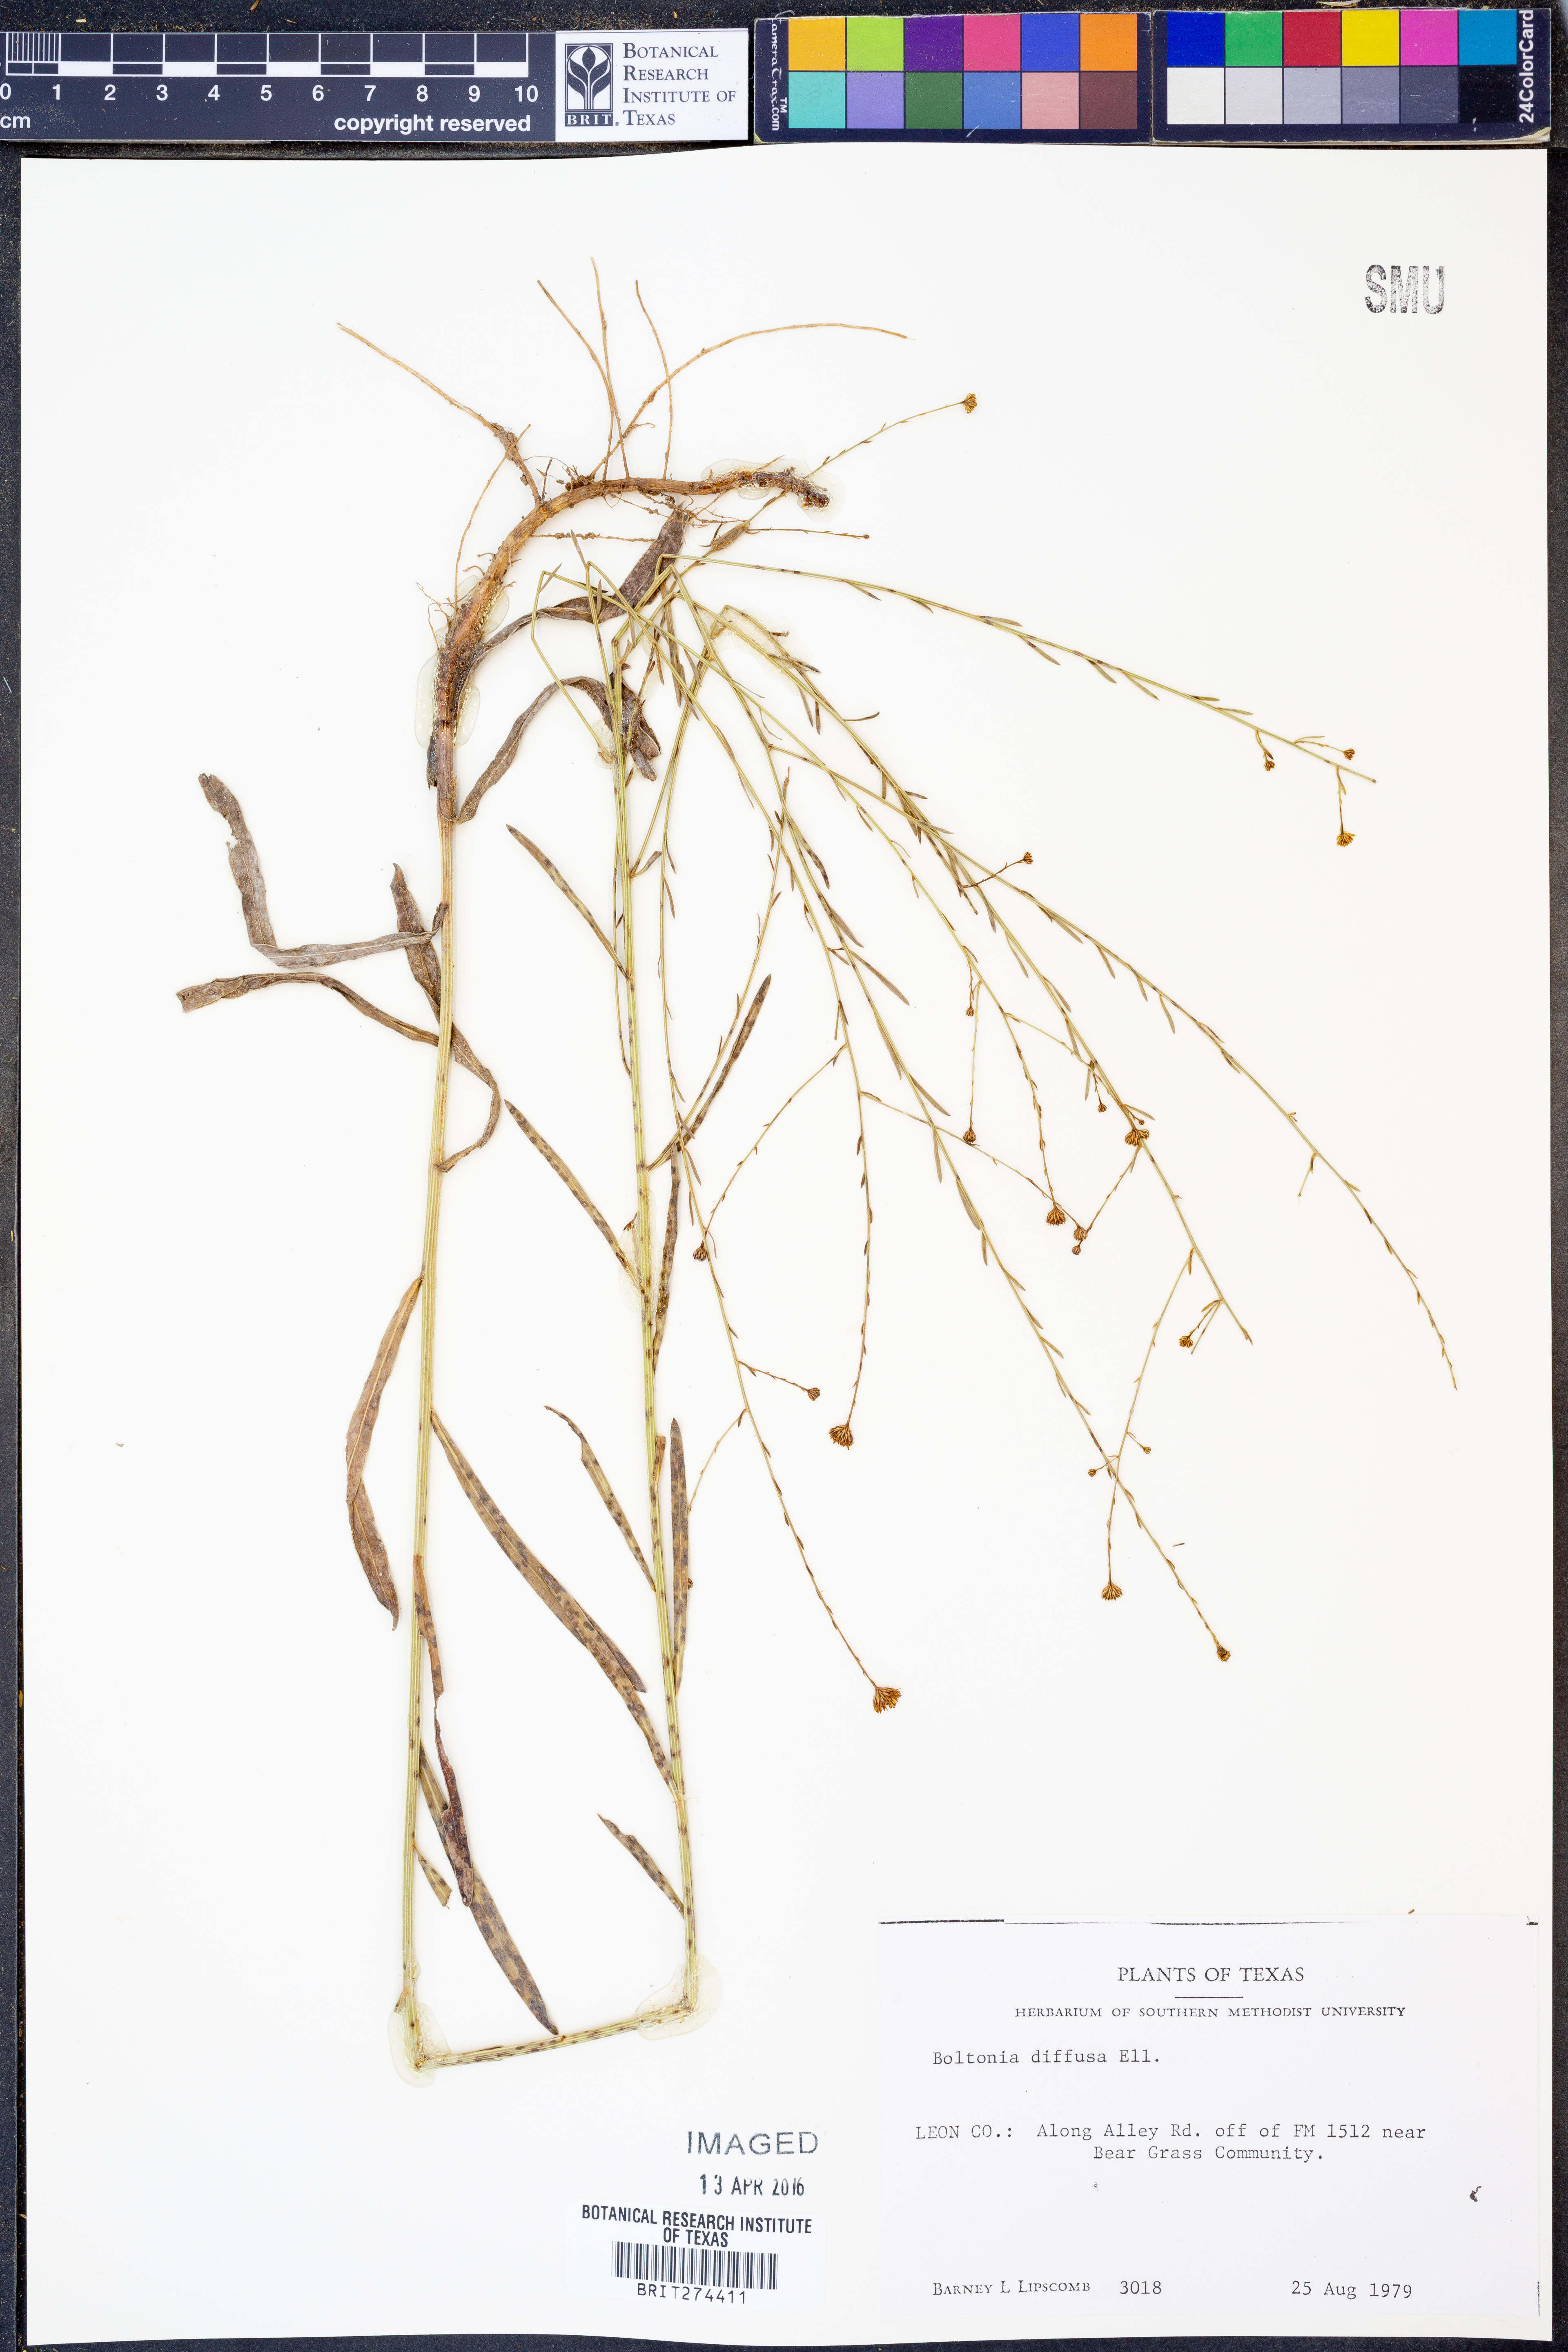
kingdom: Plantae
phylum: Tracheophyta
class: Magnoliopsida
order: Asterales
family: Asteraceae
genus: Boltonia
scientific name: Boltonia diffusa
